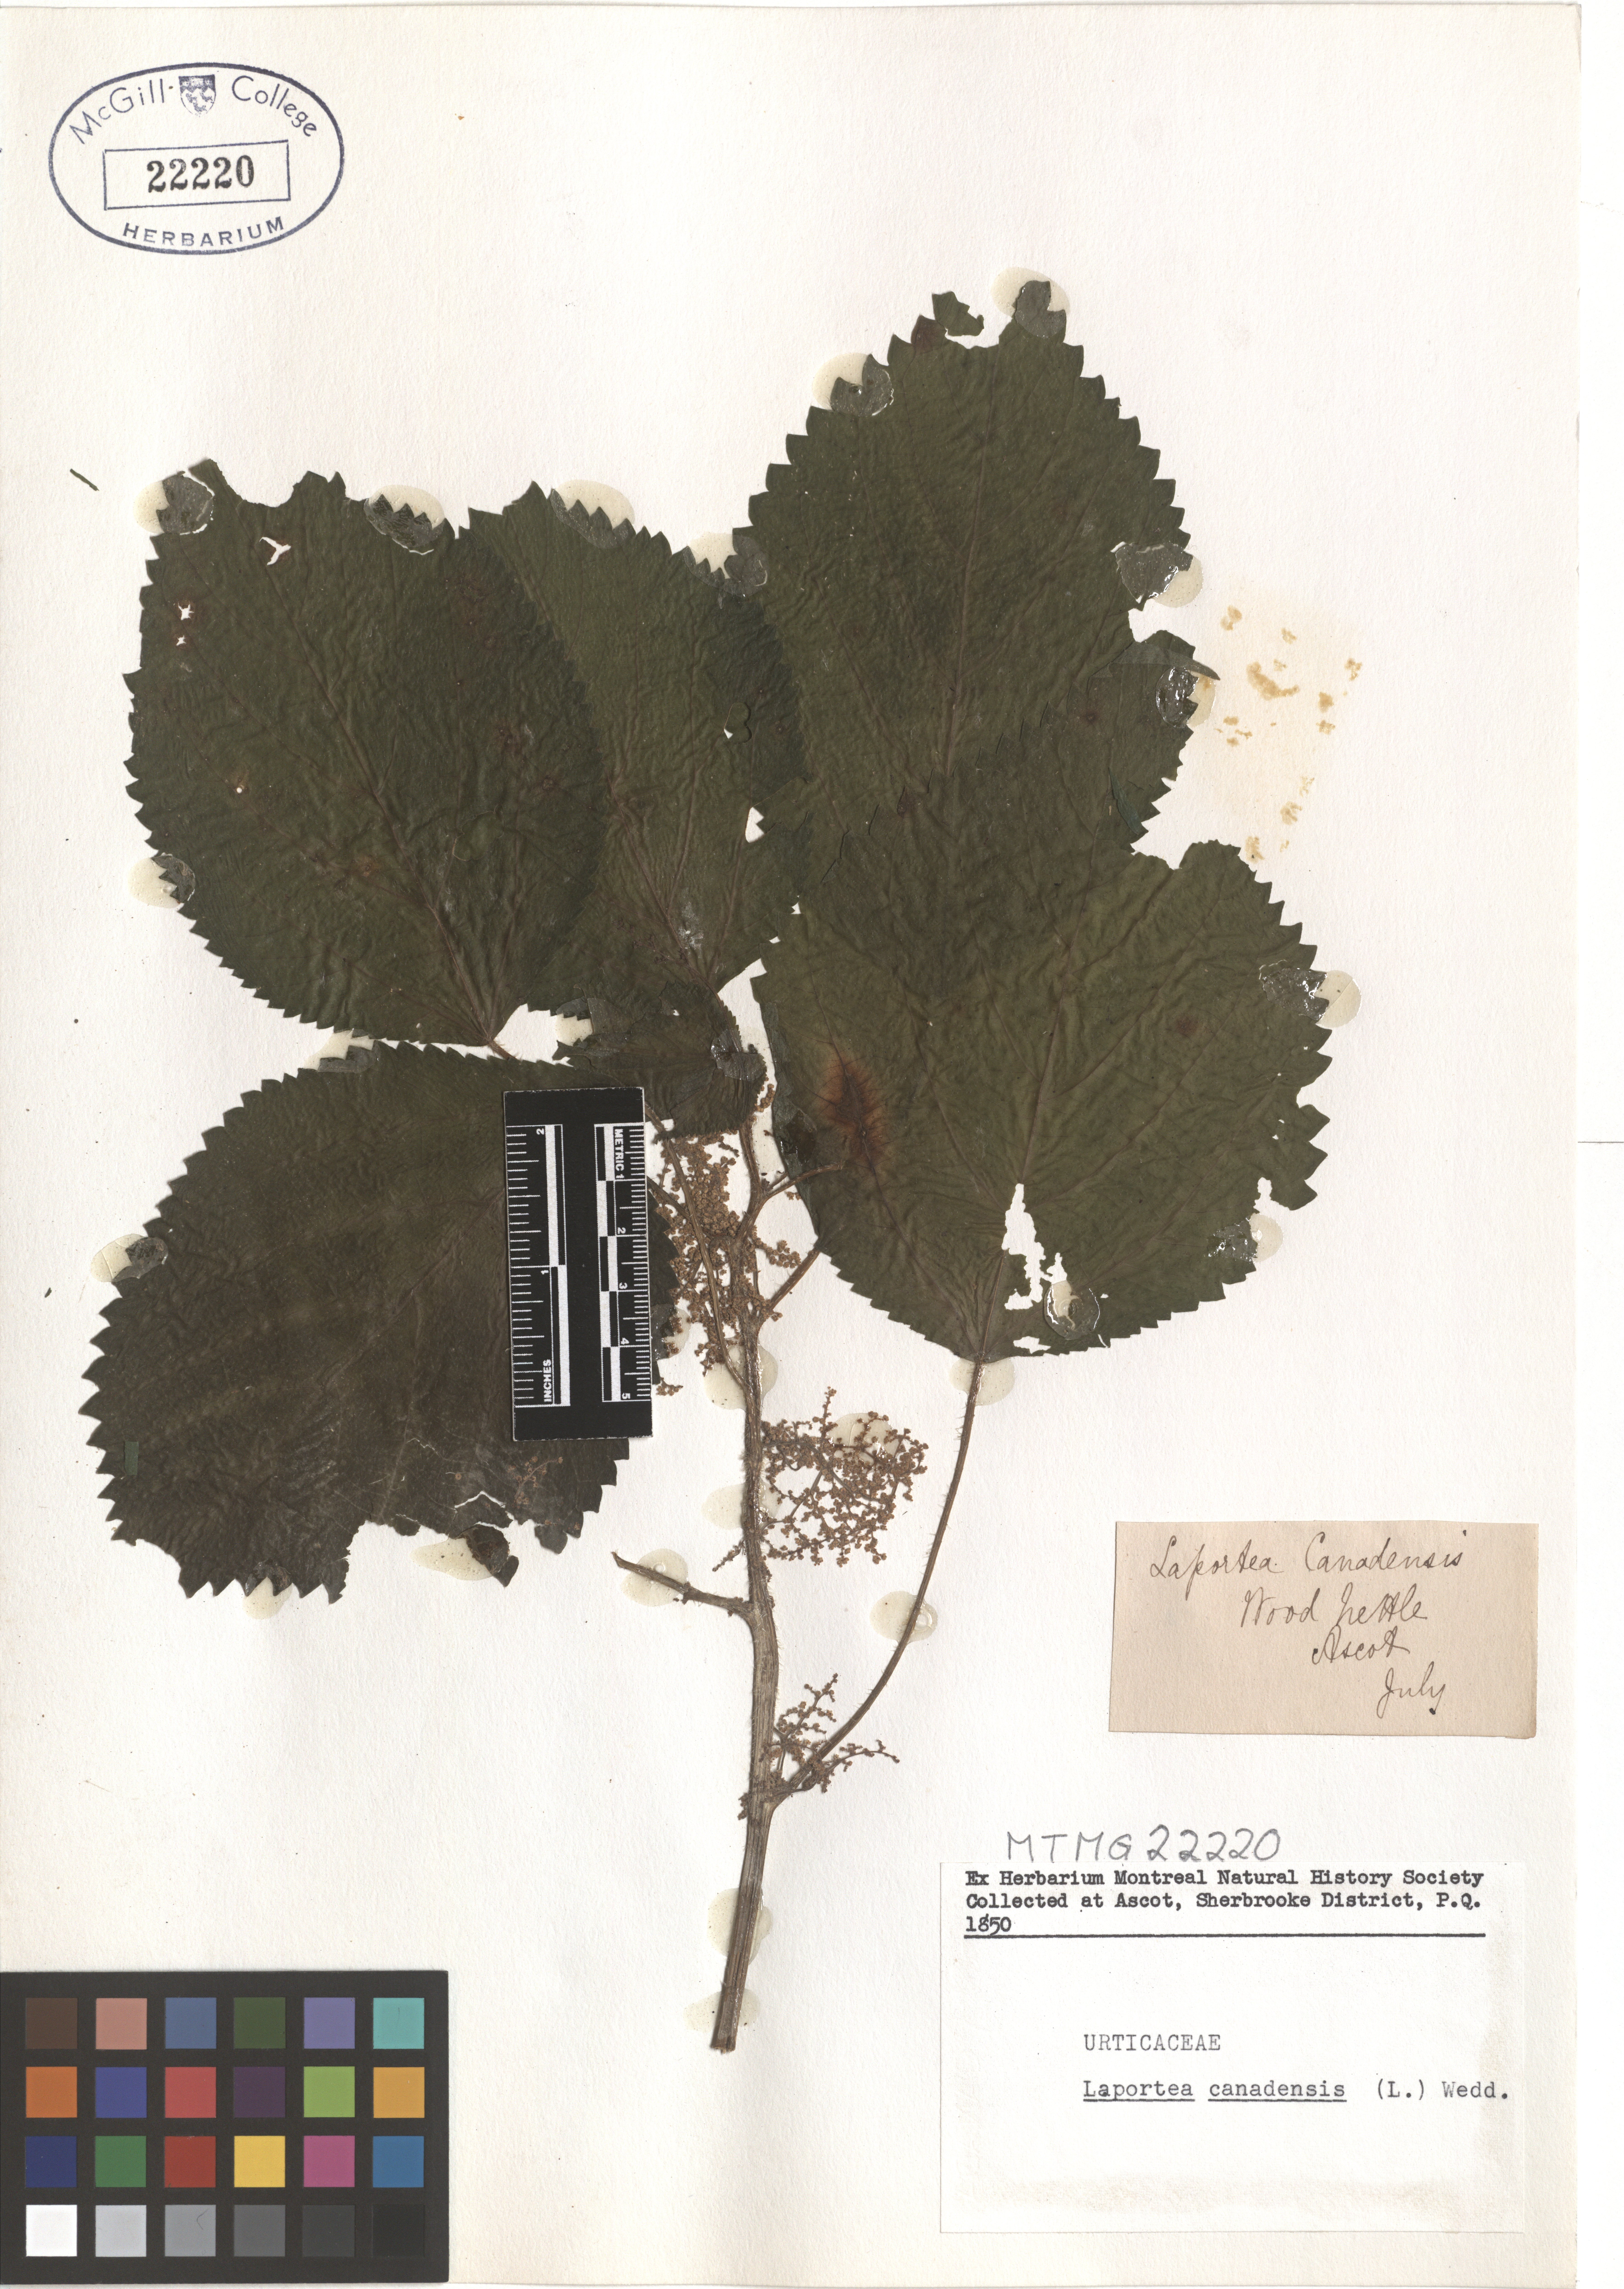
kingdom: Plantae
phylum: Tracheophyta
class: Magnoliopsida
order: Rosales
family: Urticaceae
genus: Laportea
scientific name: Laportea canadensis
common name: Canada nettle
